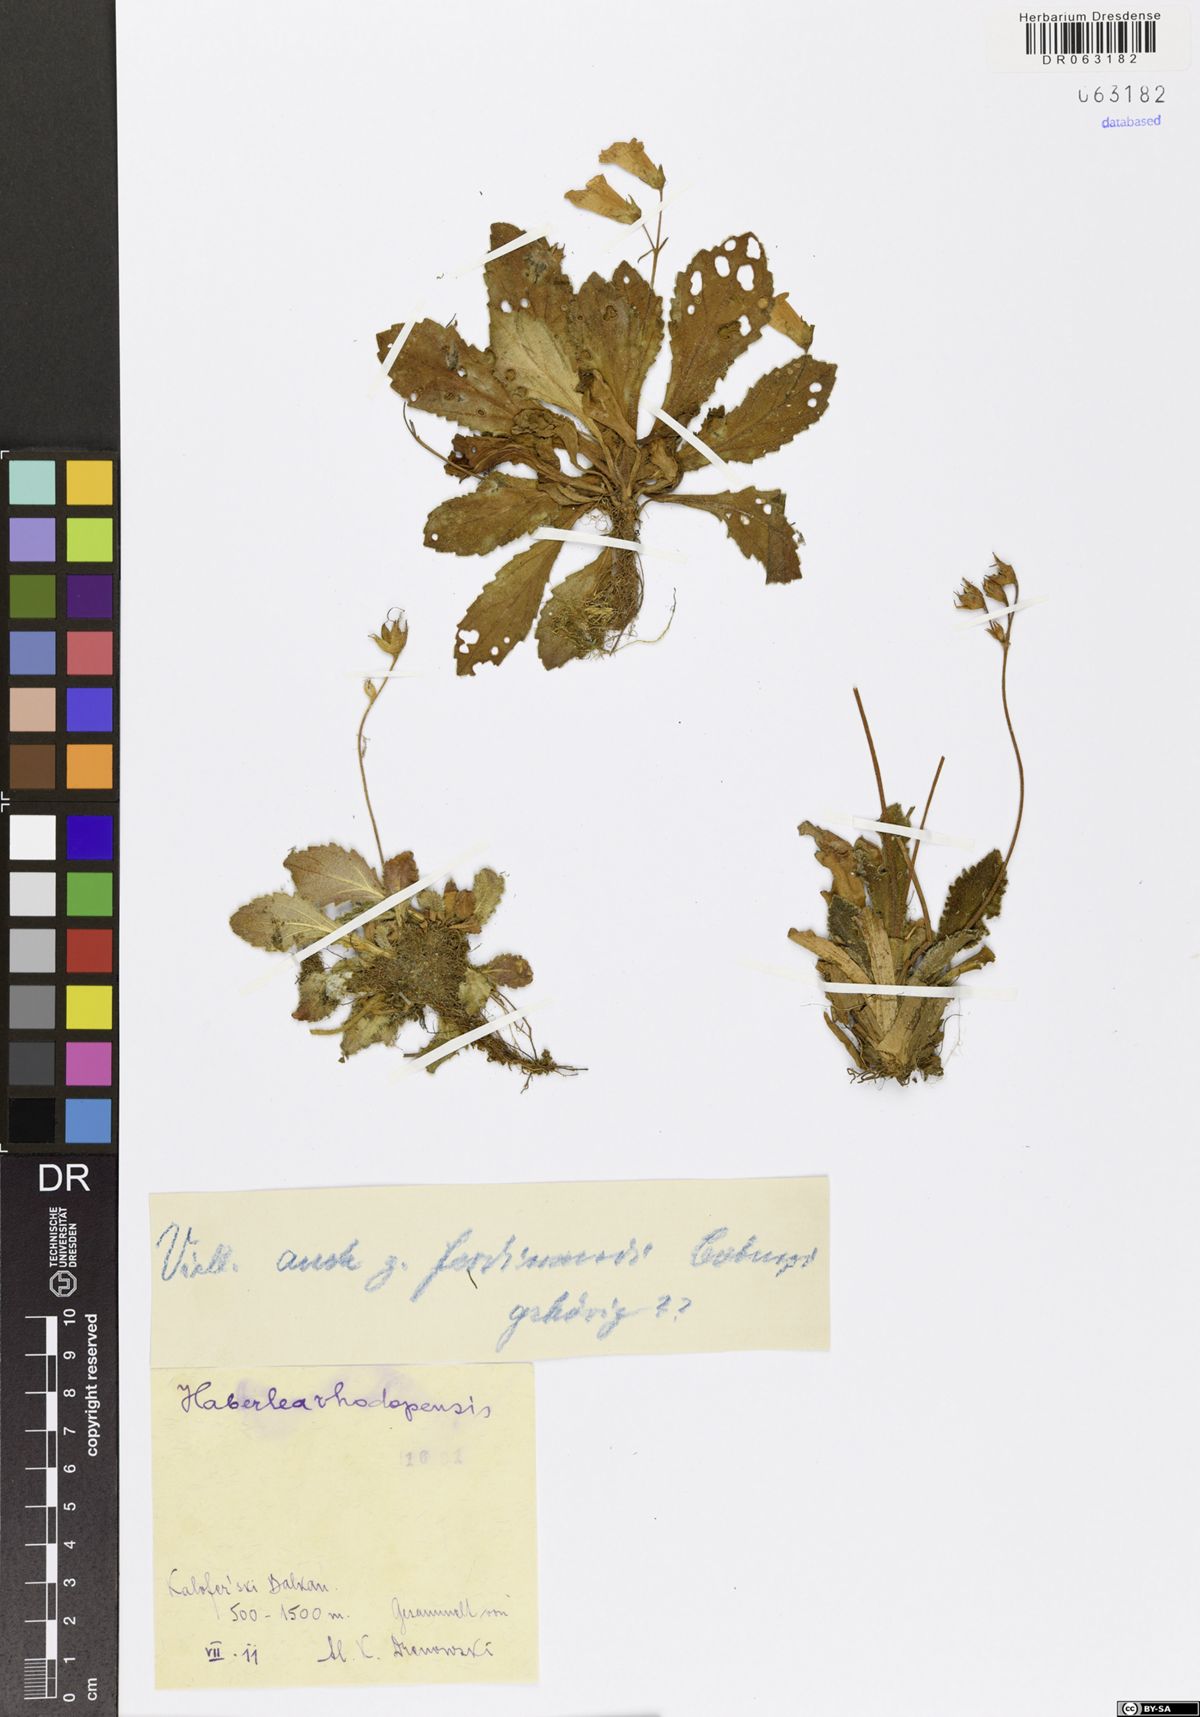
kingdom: Plantae
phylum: Tracheophyta
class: Magnoliopsida
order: Lamiales
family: Gesneriaceae
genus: Haberlea
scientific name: Haberlea rhodopensis
